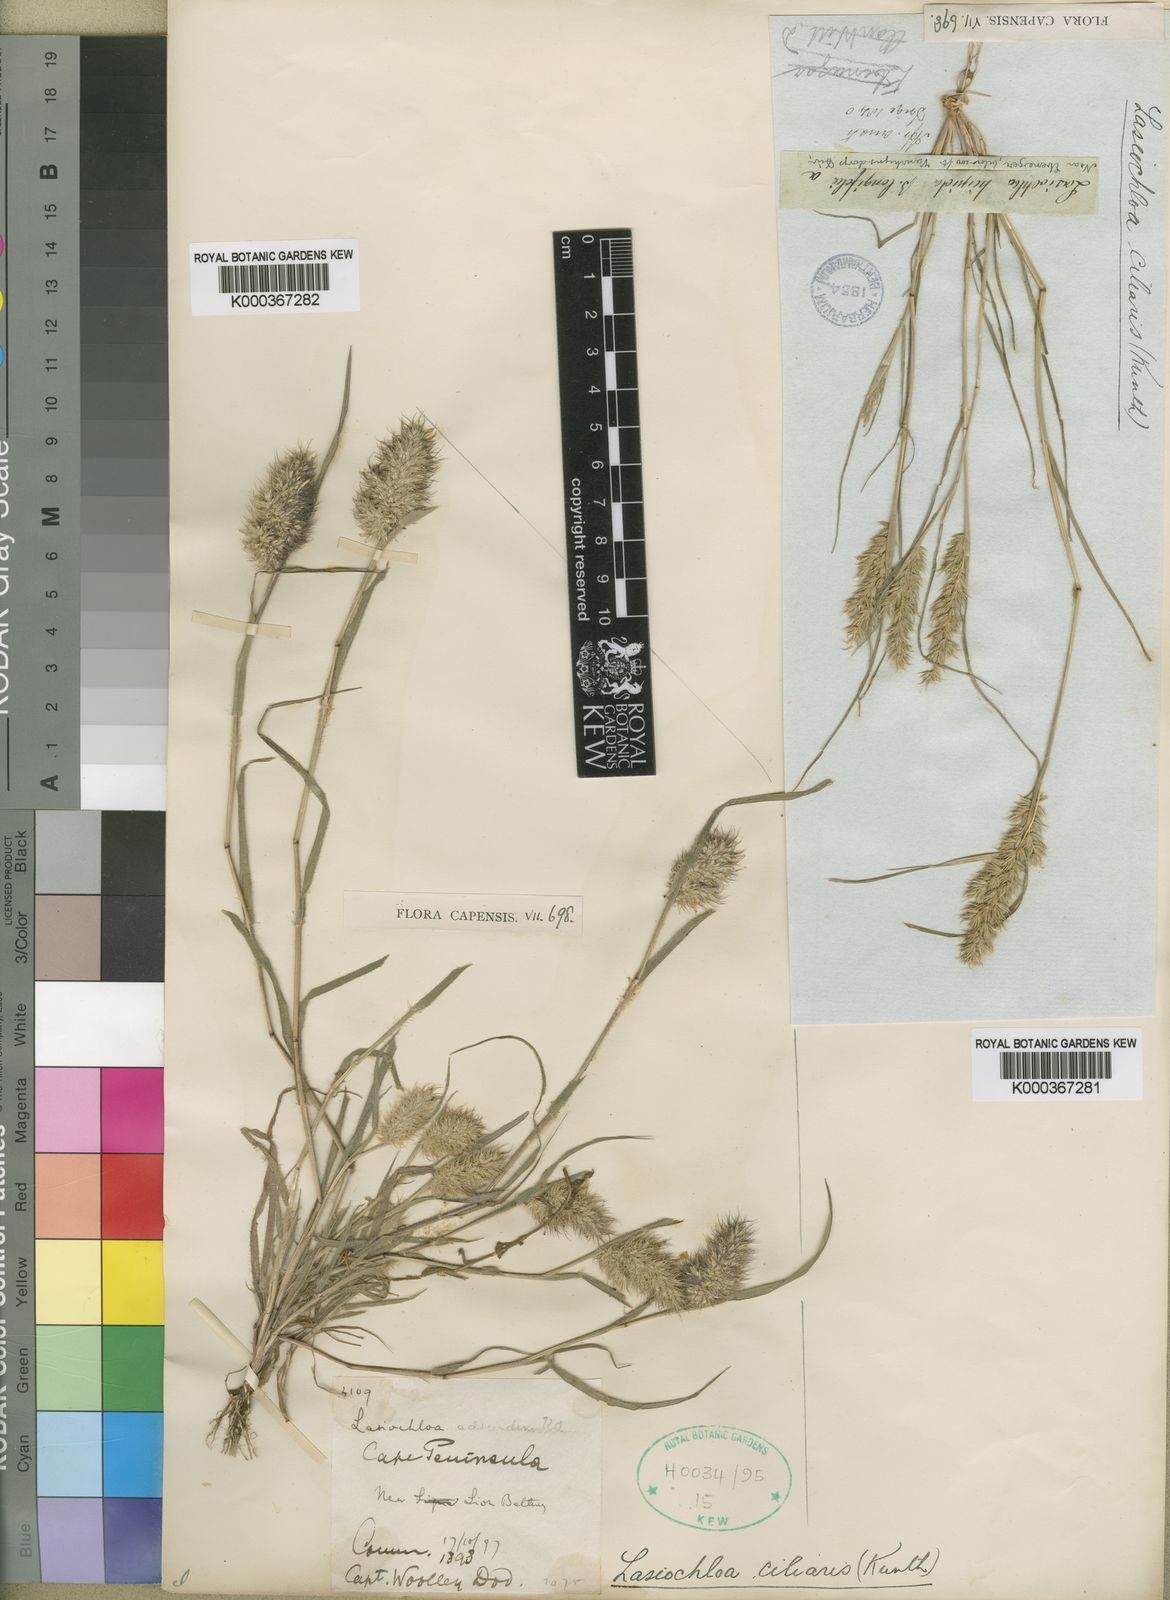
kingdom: Plantae
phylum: Tracheophyta
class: Liliopsida
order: Poales
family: Poaceae
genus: Tribolium
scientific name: Tribolium echinatum
